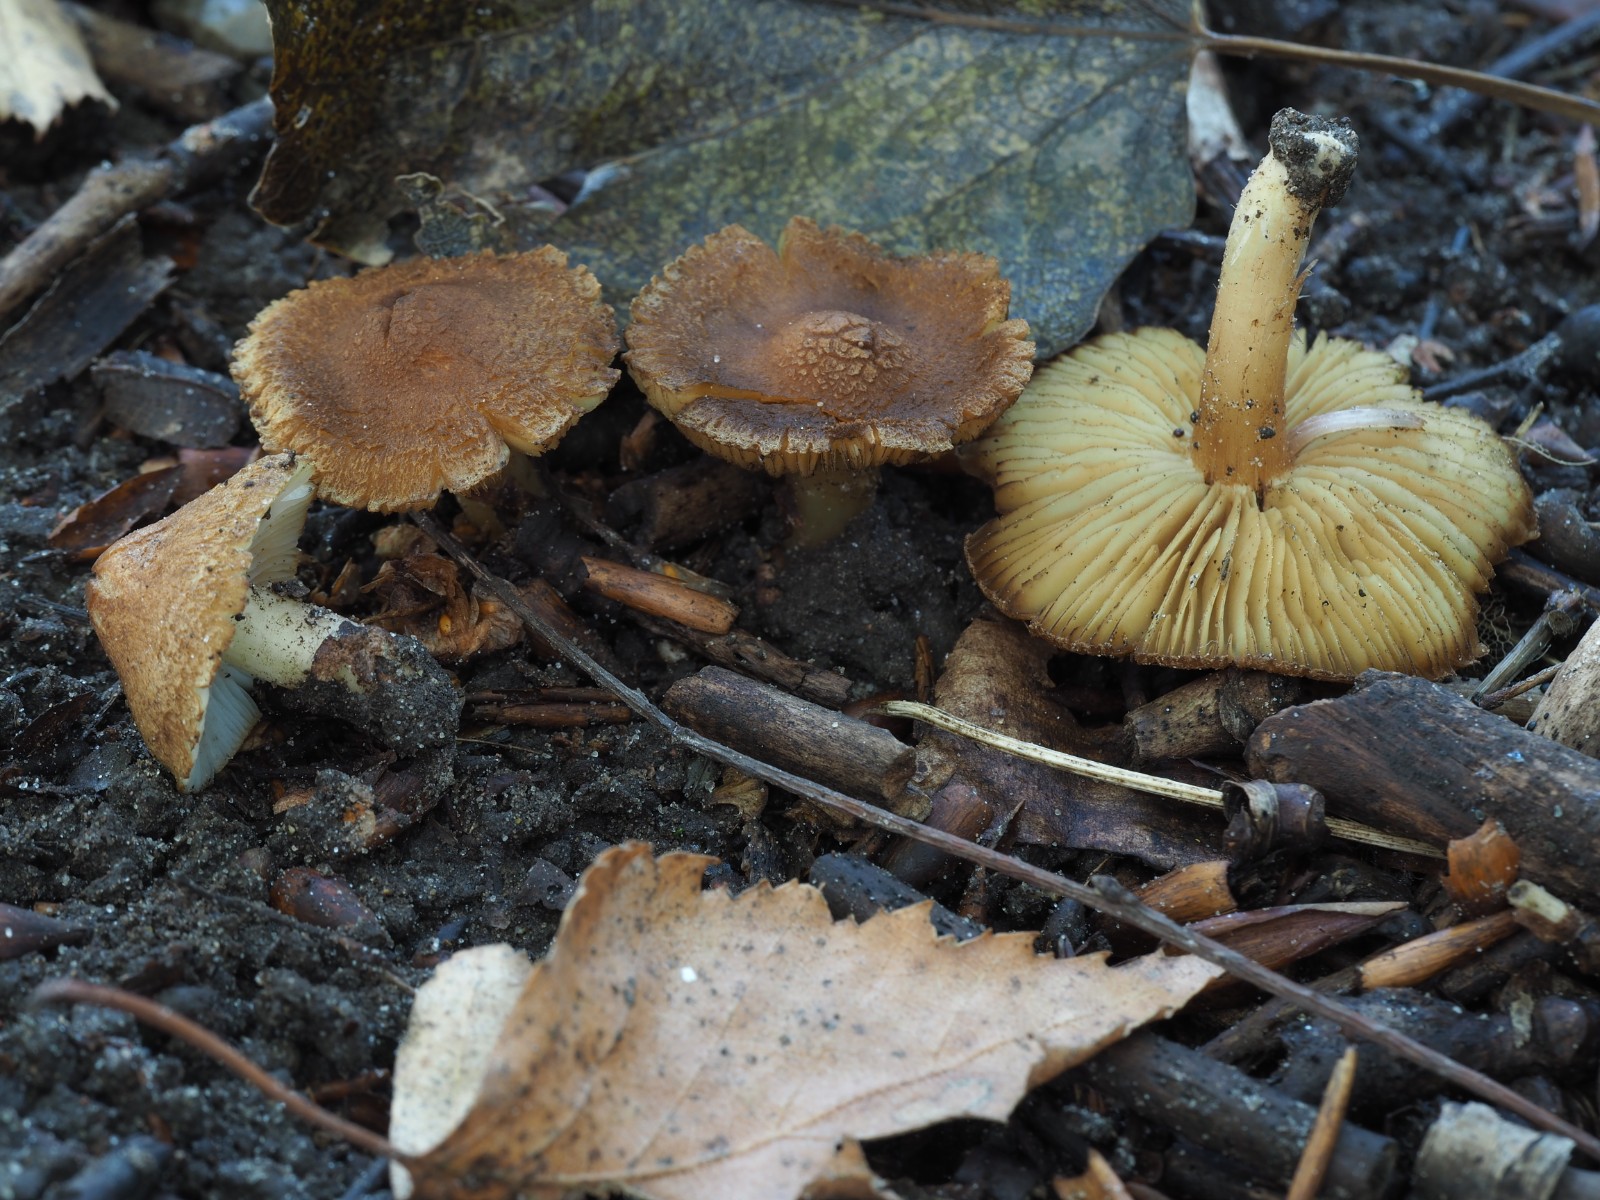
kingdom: Fungi
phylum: Basidiomycota
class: Agaricomycetes
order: Agaricales
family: Inocybaceae
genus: Inocybe
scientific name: Inocybe
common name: trævlhat
